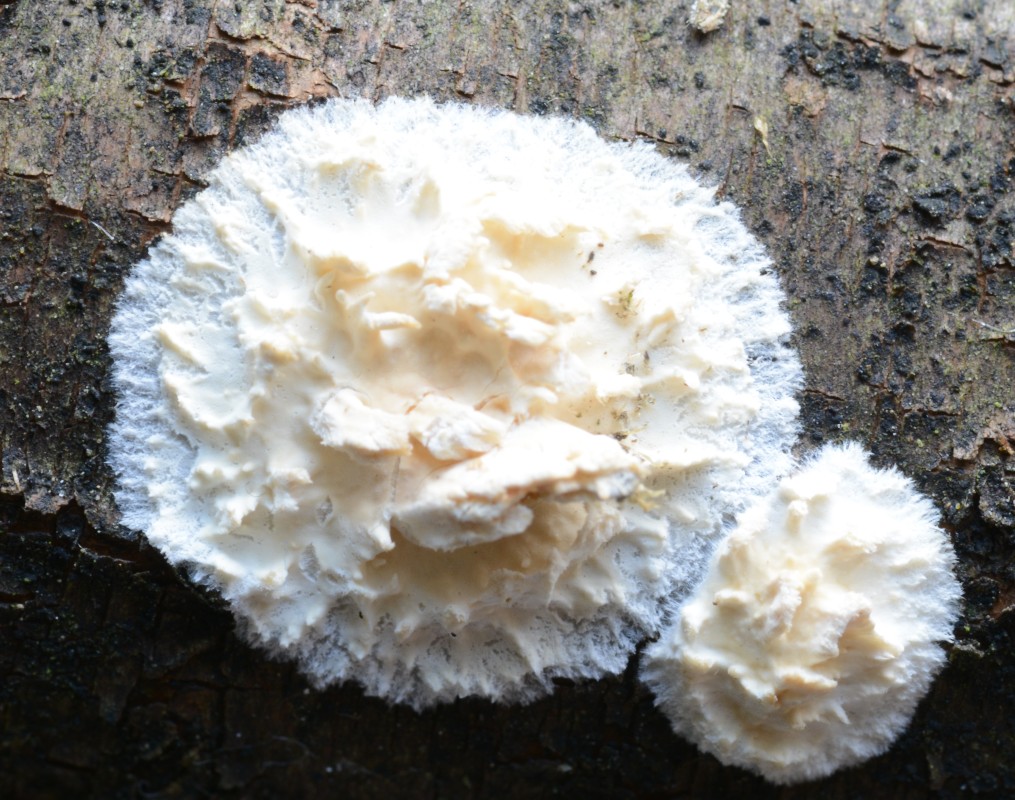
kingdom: Fungi
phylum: Basidiomycota
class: Agaricomycetes
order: Hymenochaetales
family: Schizoporaceae
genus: Xylodon
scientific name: Xylodon radula
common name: grovtandet kalkskind
